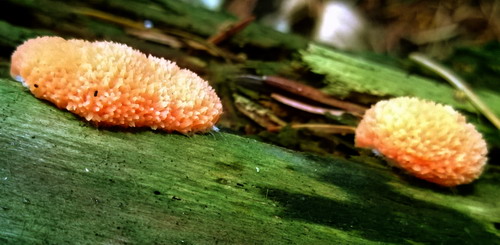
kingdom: Protozoa
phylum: Mycetozoa
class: Myxomycetes
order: Cribrariales
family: Tubiferaceae
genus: Tubifera
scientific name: Tubifera ferruginosa
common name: kanel-støvrør
